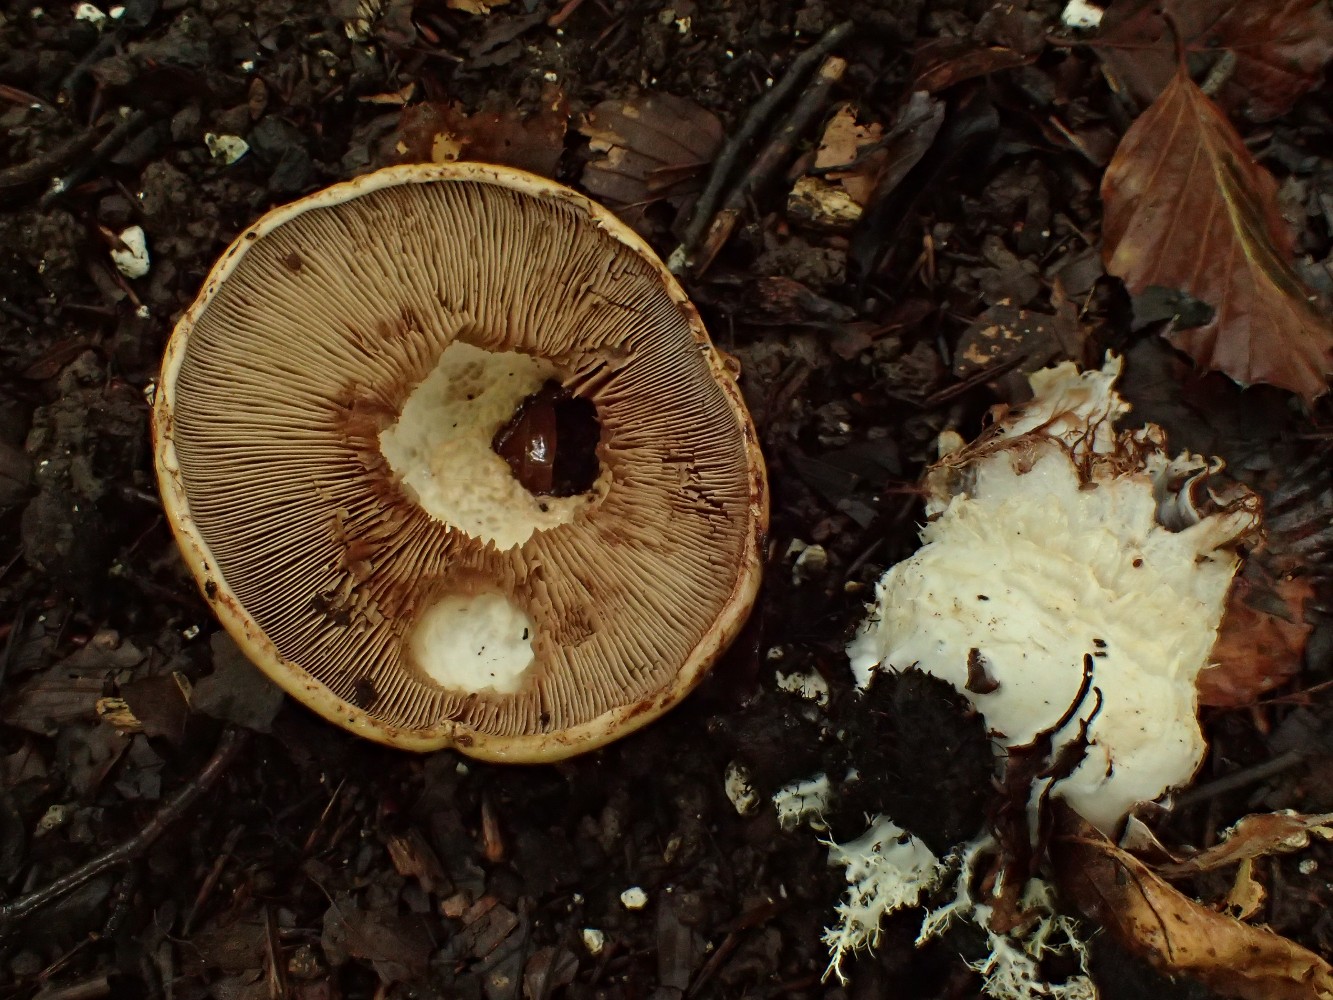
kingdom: Fungi
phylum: Basidiomycota
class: Agaricomycetes
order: Agaricales
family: Cortinariaceae
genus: Cortinarius
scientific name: Cortinarius anserinus
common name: bøge-slørhat
